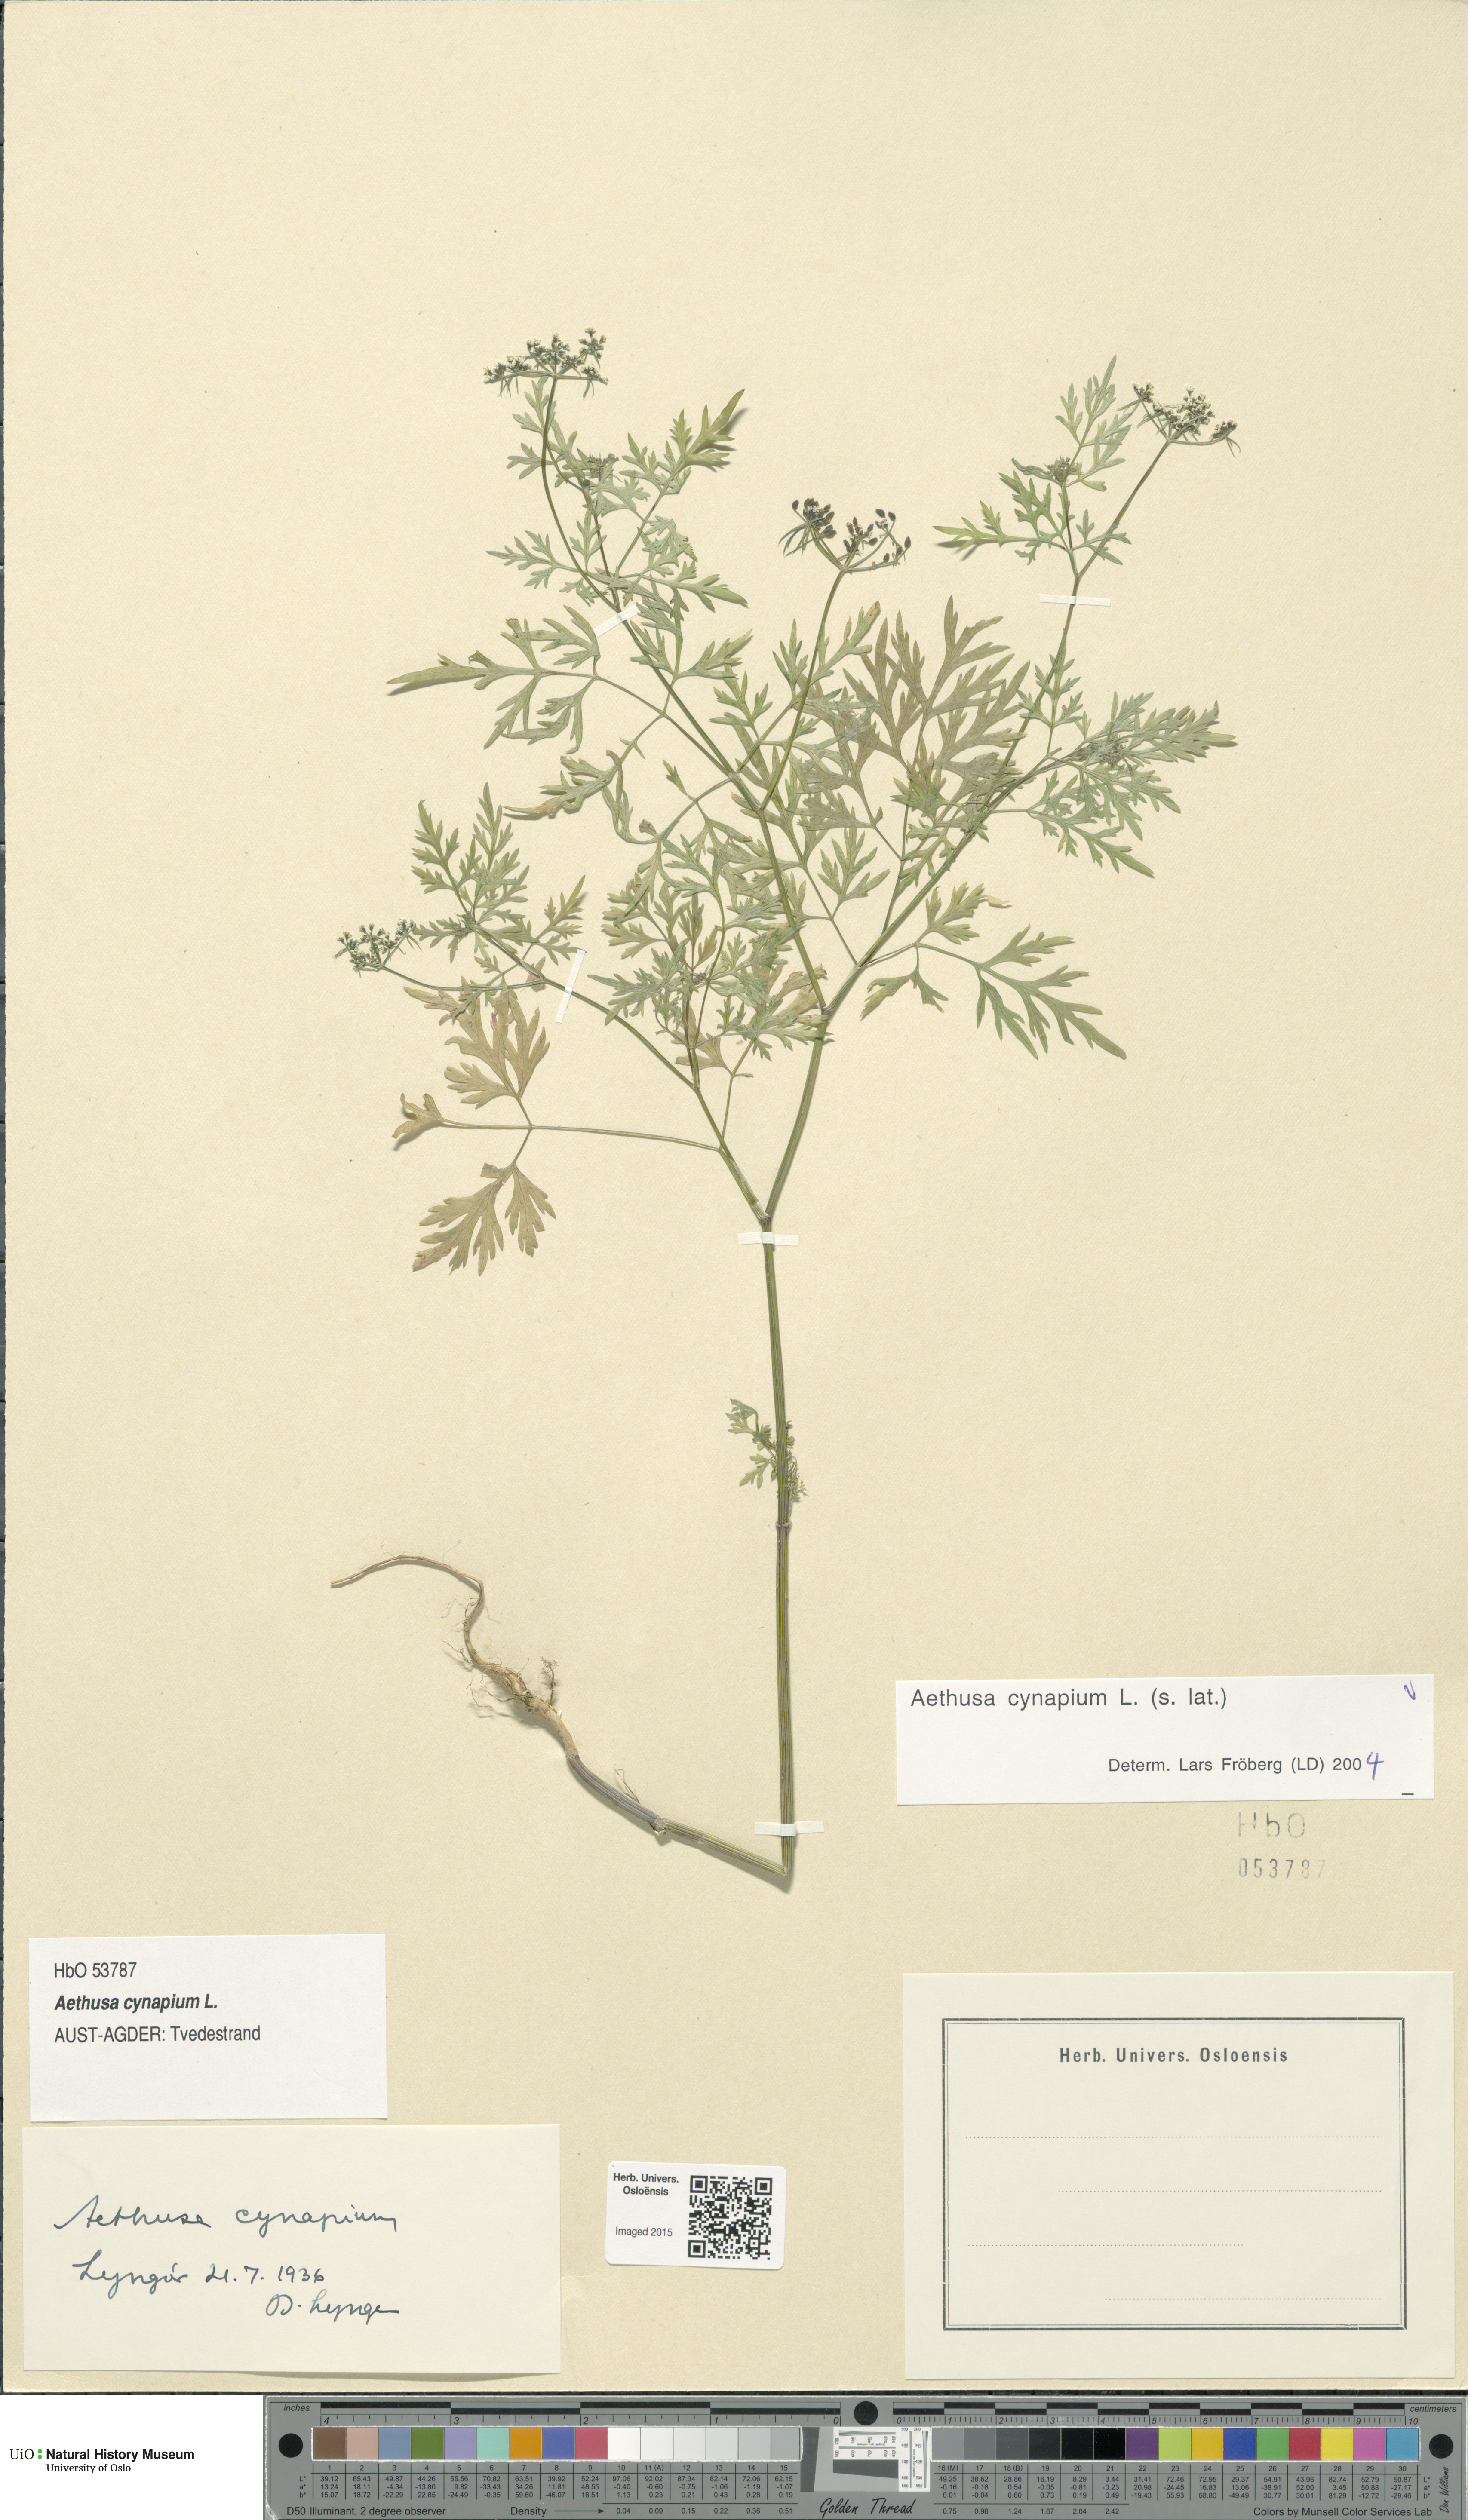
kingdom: Plantae
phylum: Tracheophyta
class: Magnoliopsida
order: Apiales
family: Apiaceae
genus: Aethusa
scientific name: Aethusa cynapium
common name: Fool's parsley
